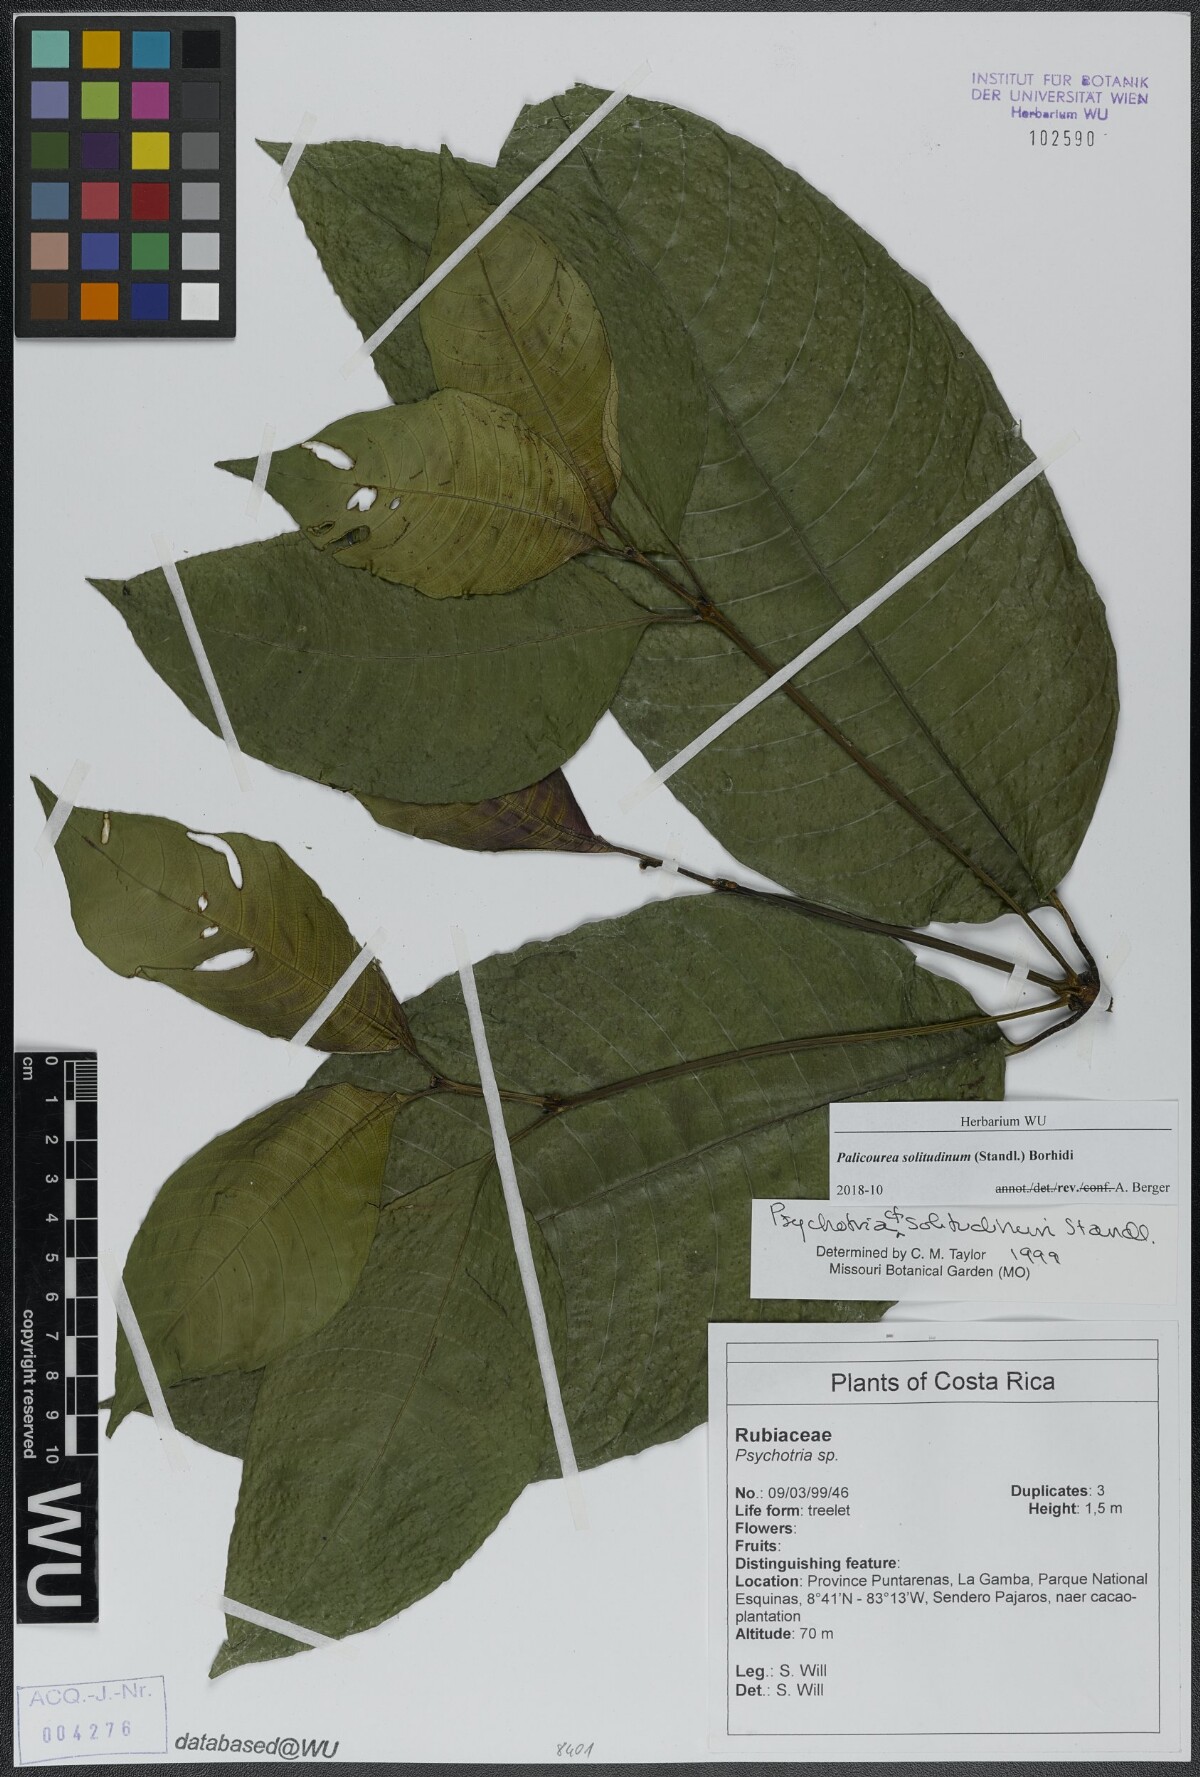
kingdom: Plantae
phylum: Tracheophyta
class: Magnoliopsida
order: Gentianales
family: Rubiaceae
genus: Palicourea
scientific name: Palicourea solitudinum
